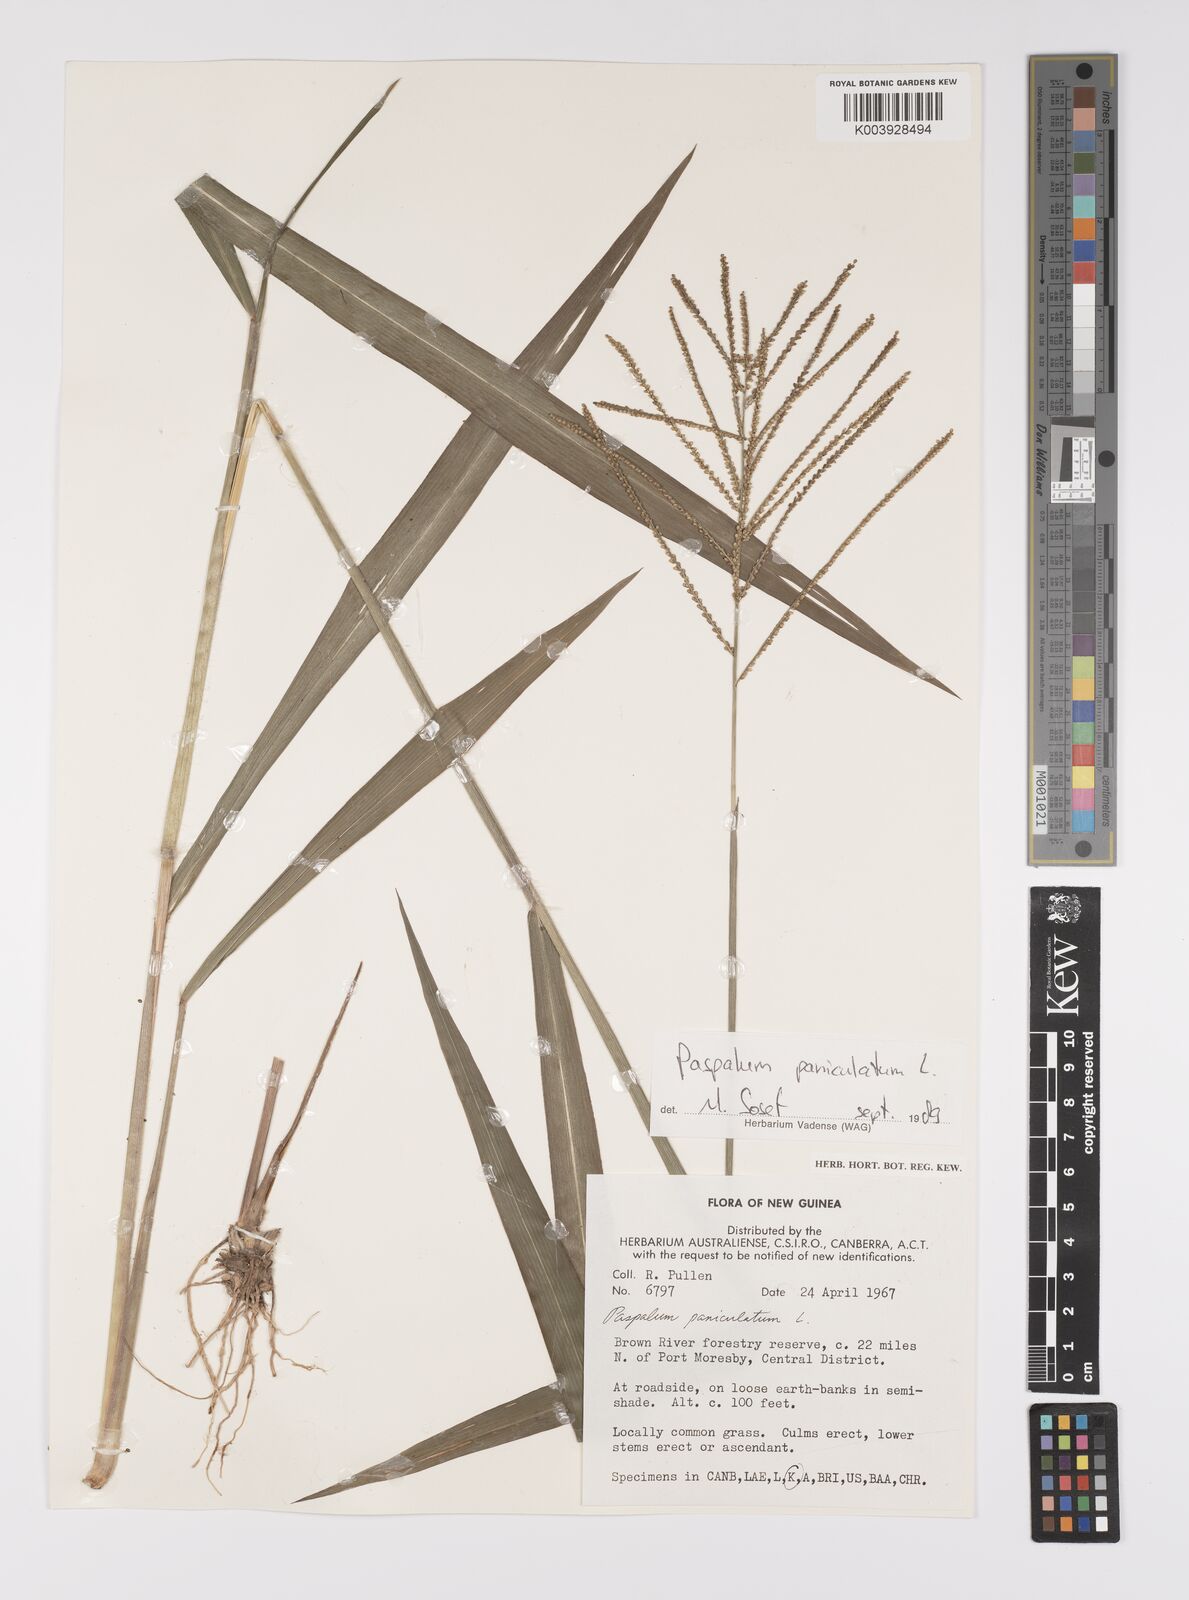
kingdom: Plantae
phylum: Tracheophyta
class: Liliopsida
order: Poales
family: Poaceae
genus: Paspalum
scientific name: Paspalum paniculatum
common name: Arrocillo
